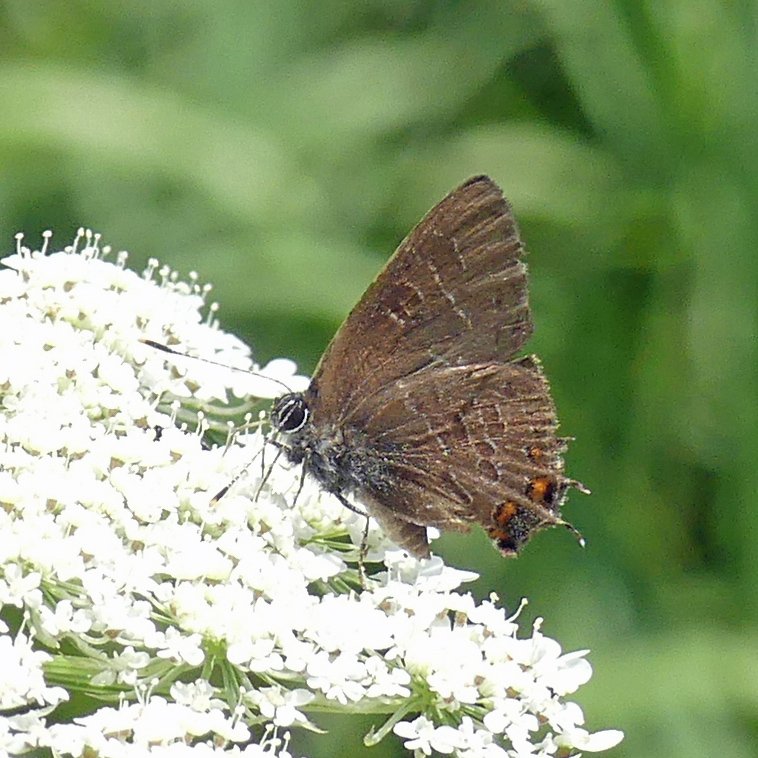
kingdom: Animalia
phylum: Arthropoda
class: Insecta
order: Lepidoptera
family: Lycaenidae
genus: Satyrium
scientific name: Satyrium liparops
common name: Striped Hairstreak
